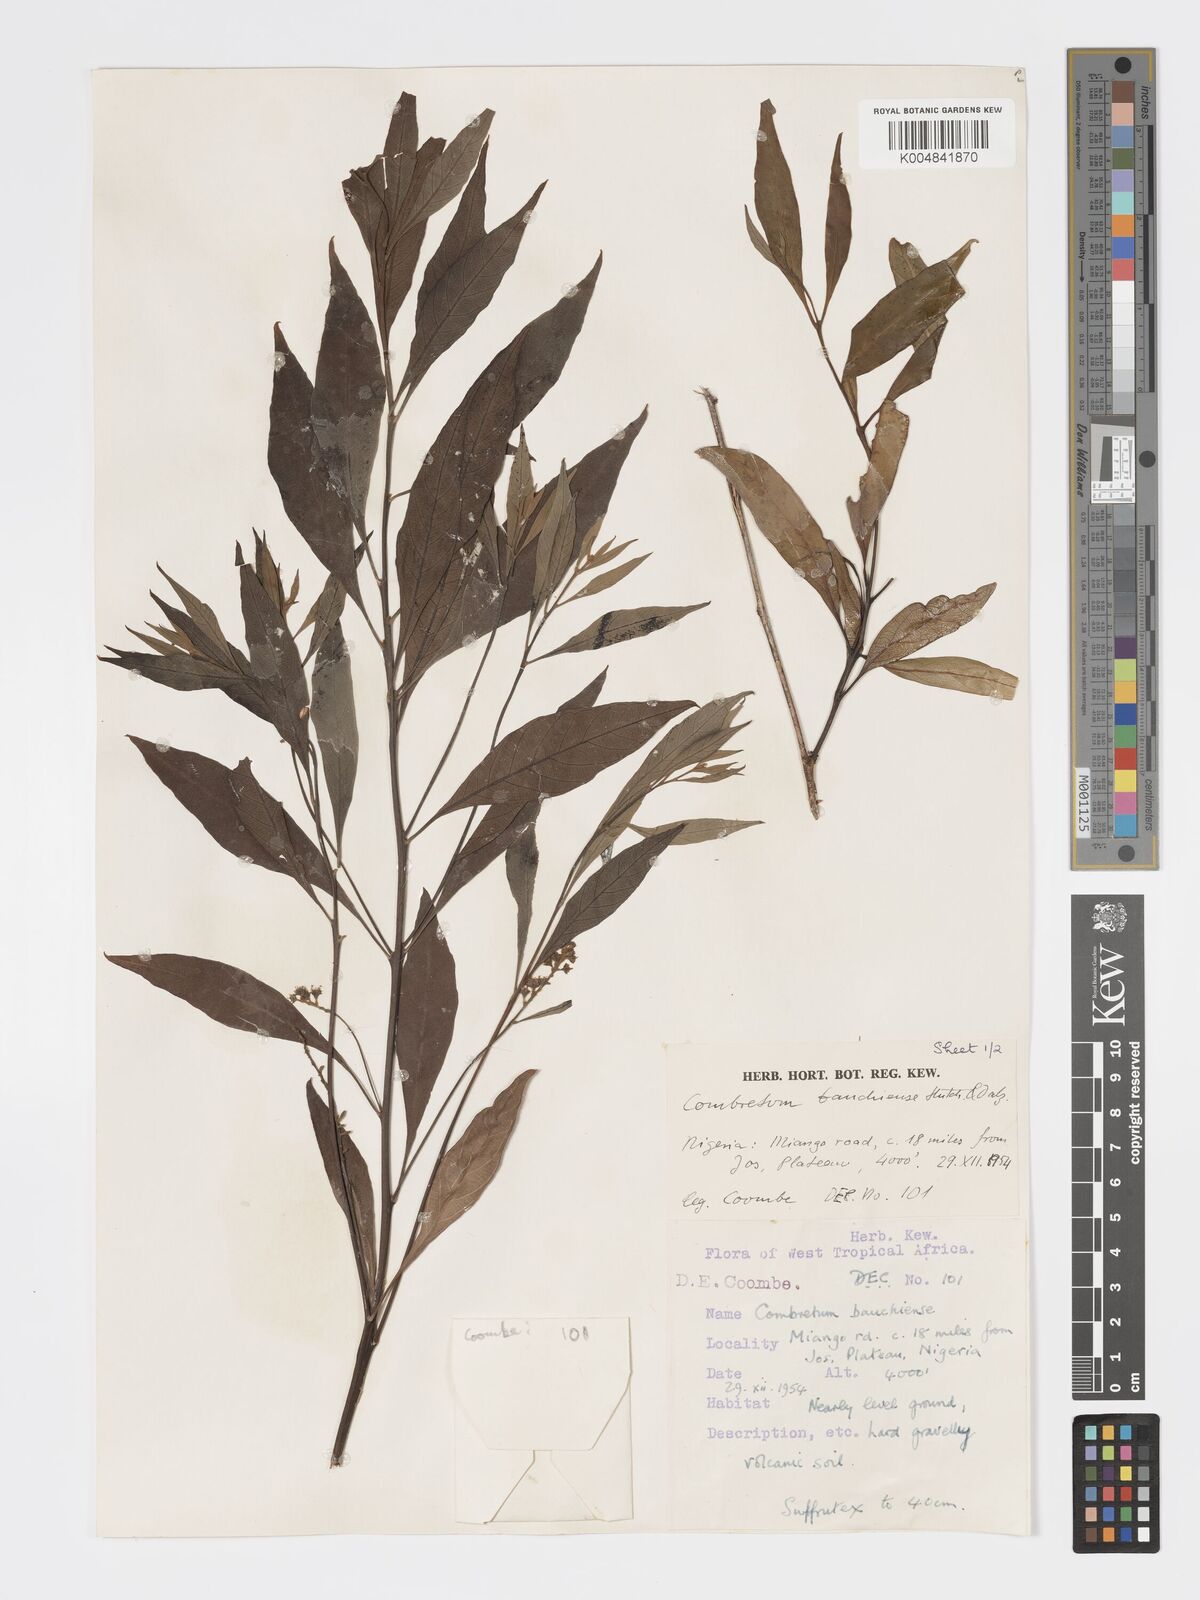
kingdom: Plantae
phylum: Tracheophyta
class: Magnoliopsida
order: Myrtales
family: Combretaceae
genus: Combretum
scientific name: Combretum bauchiense
